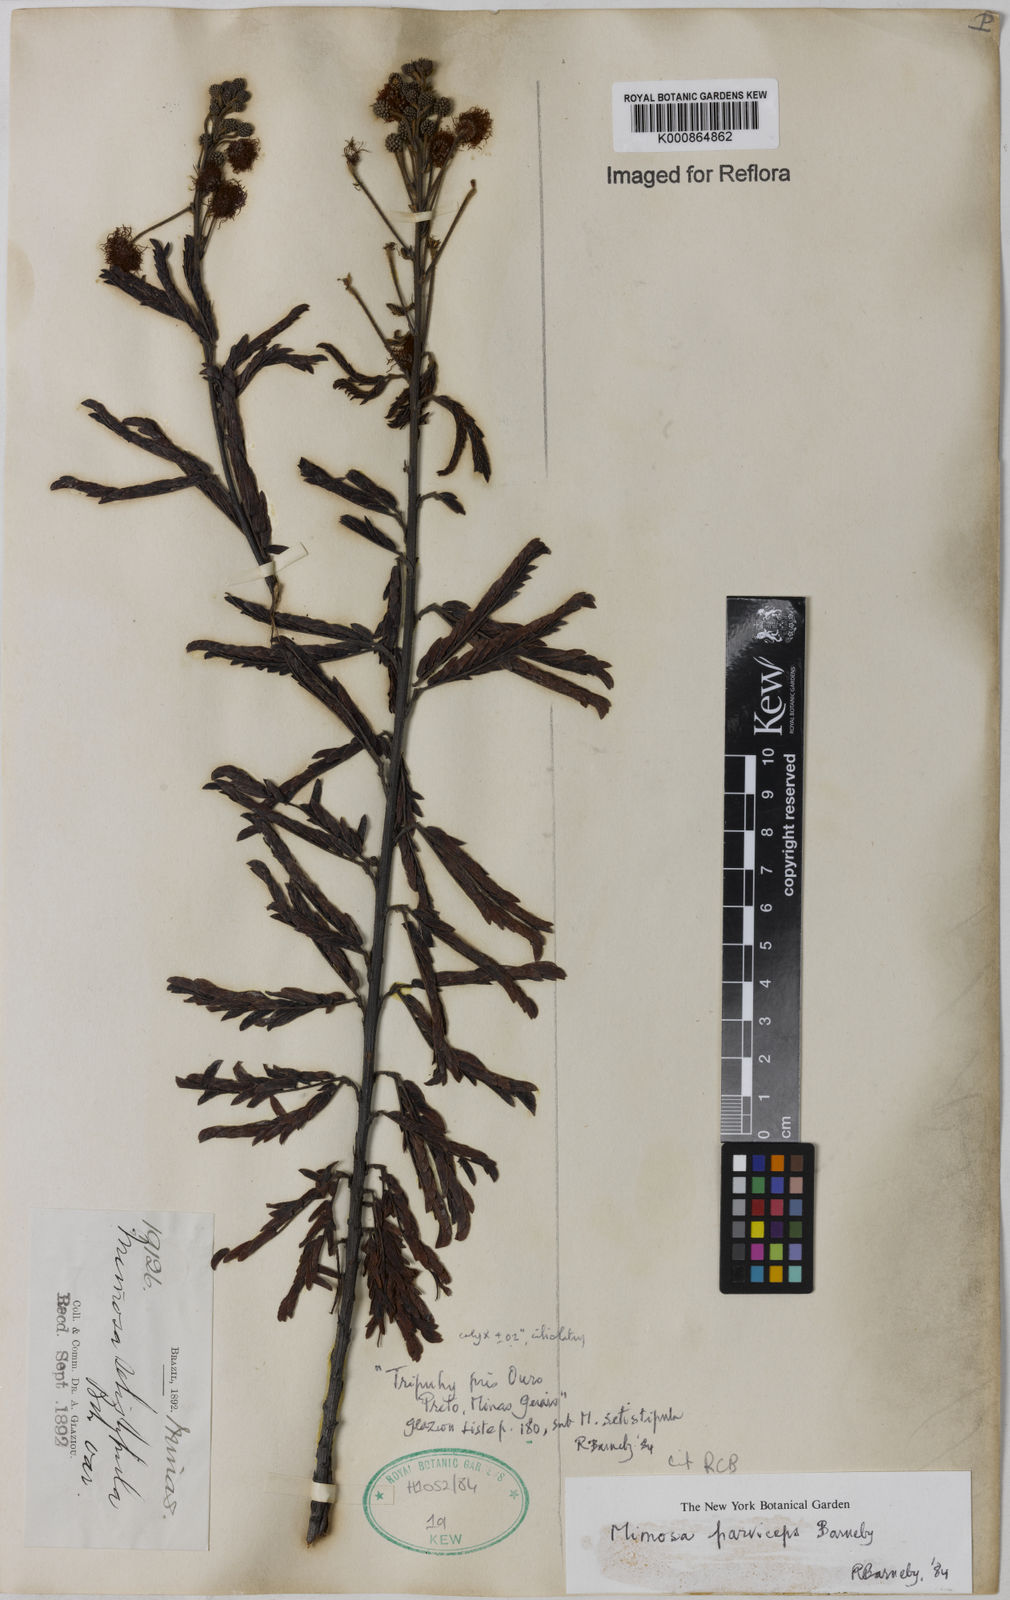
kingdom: Plantae
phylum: Tracheophyta
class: Magnoliopsida
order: Fabales
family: Fabaceae
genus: Mimosa
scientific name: Mimosa
